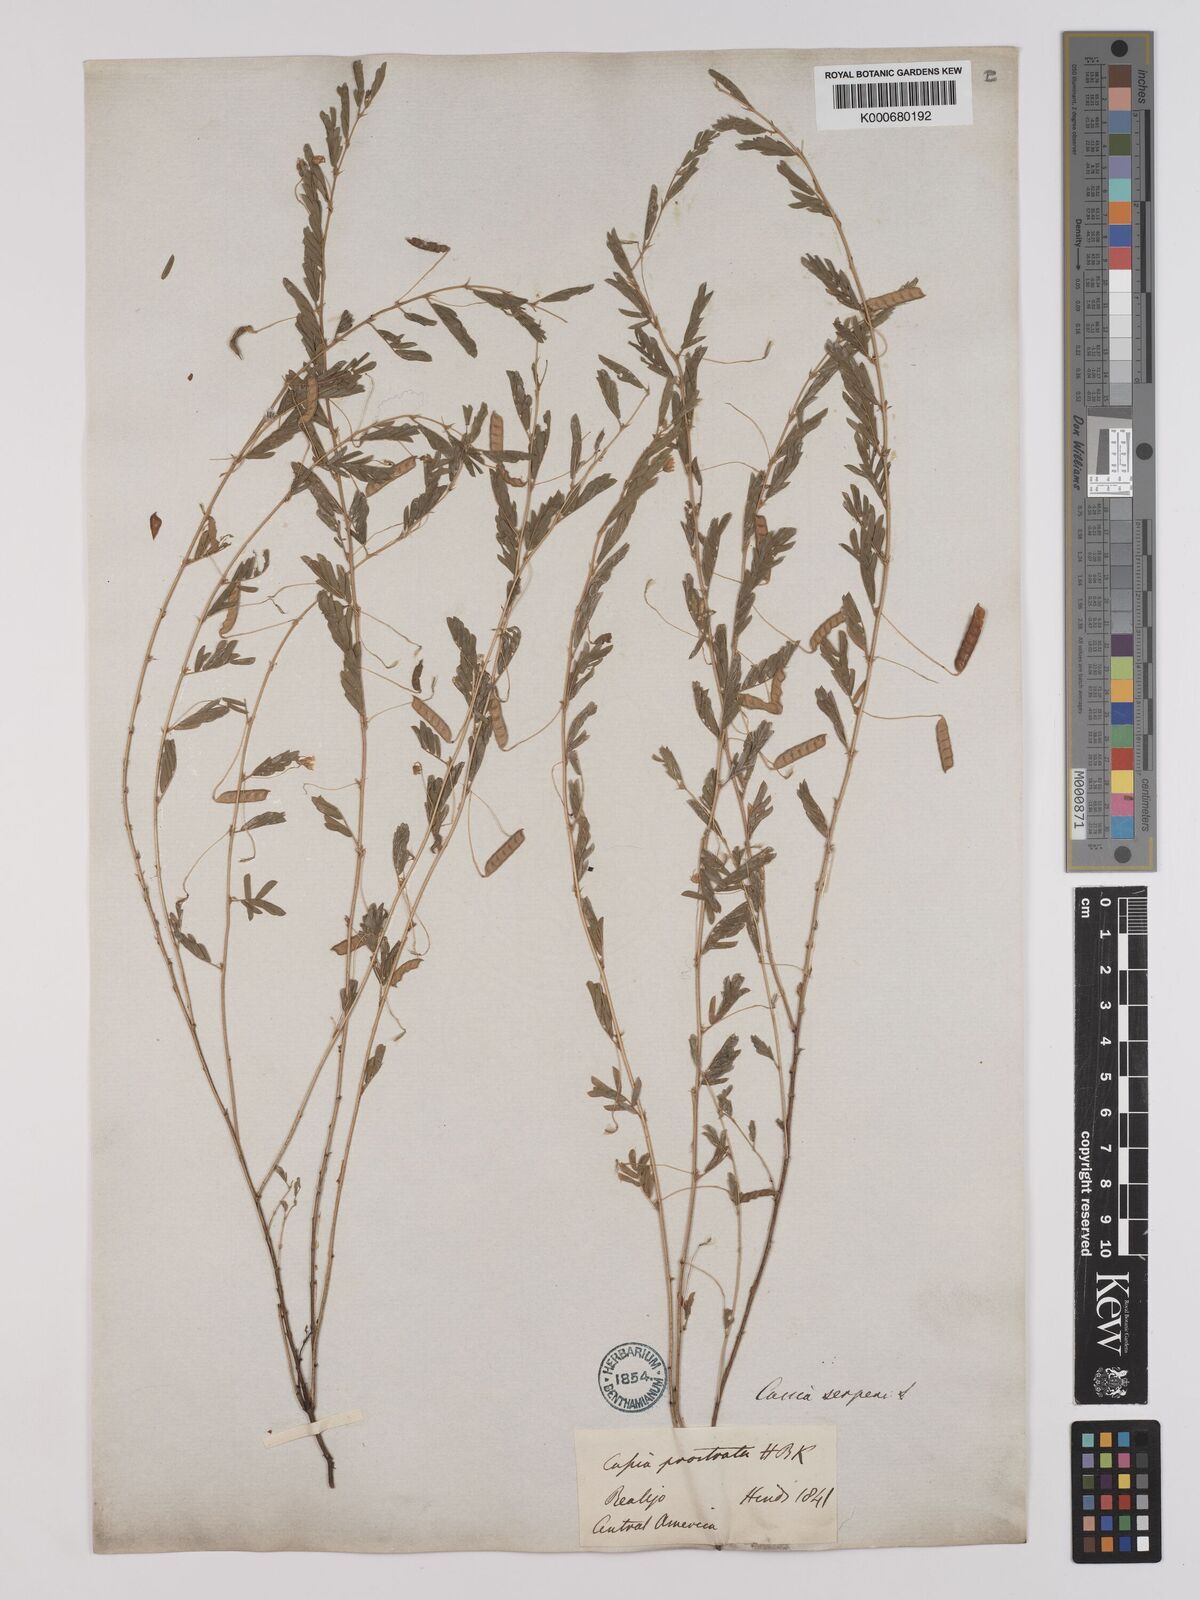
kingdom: Plantae
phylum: Tracheophyta
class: Magnoliopsida
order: Fabales
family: Fabaceae
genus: Chamaecrista
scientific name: Chamaecrista serpens
